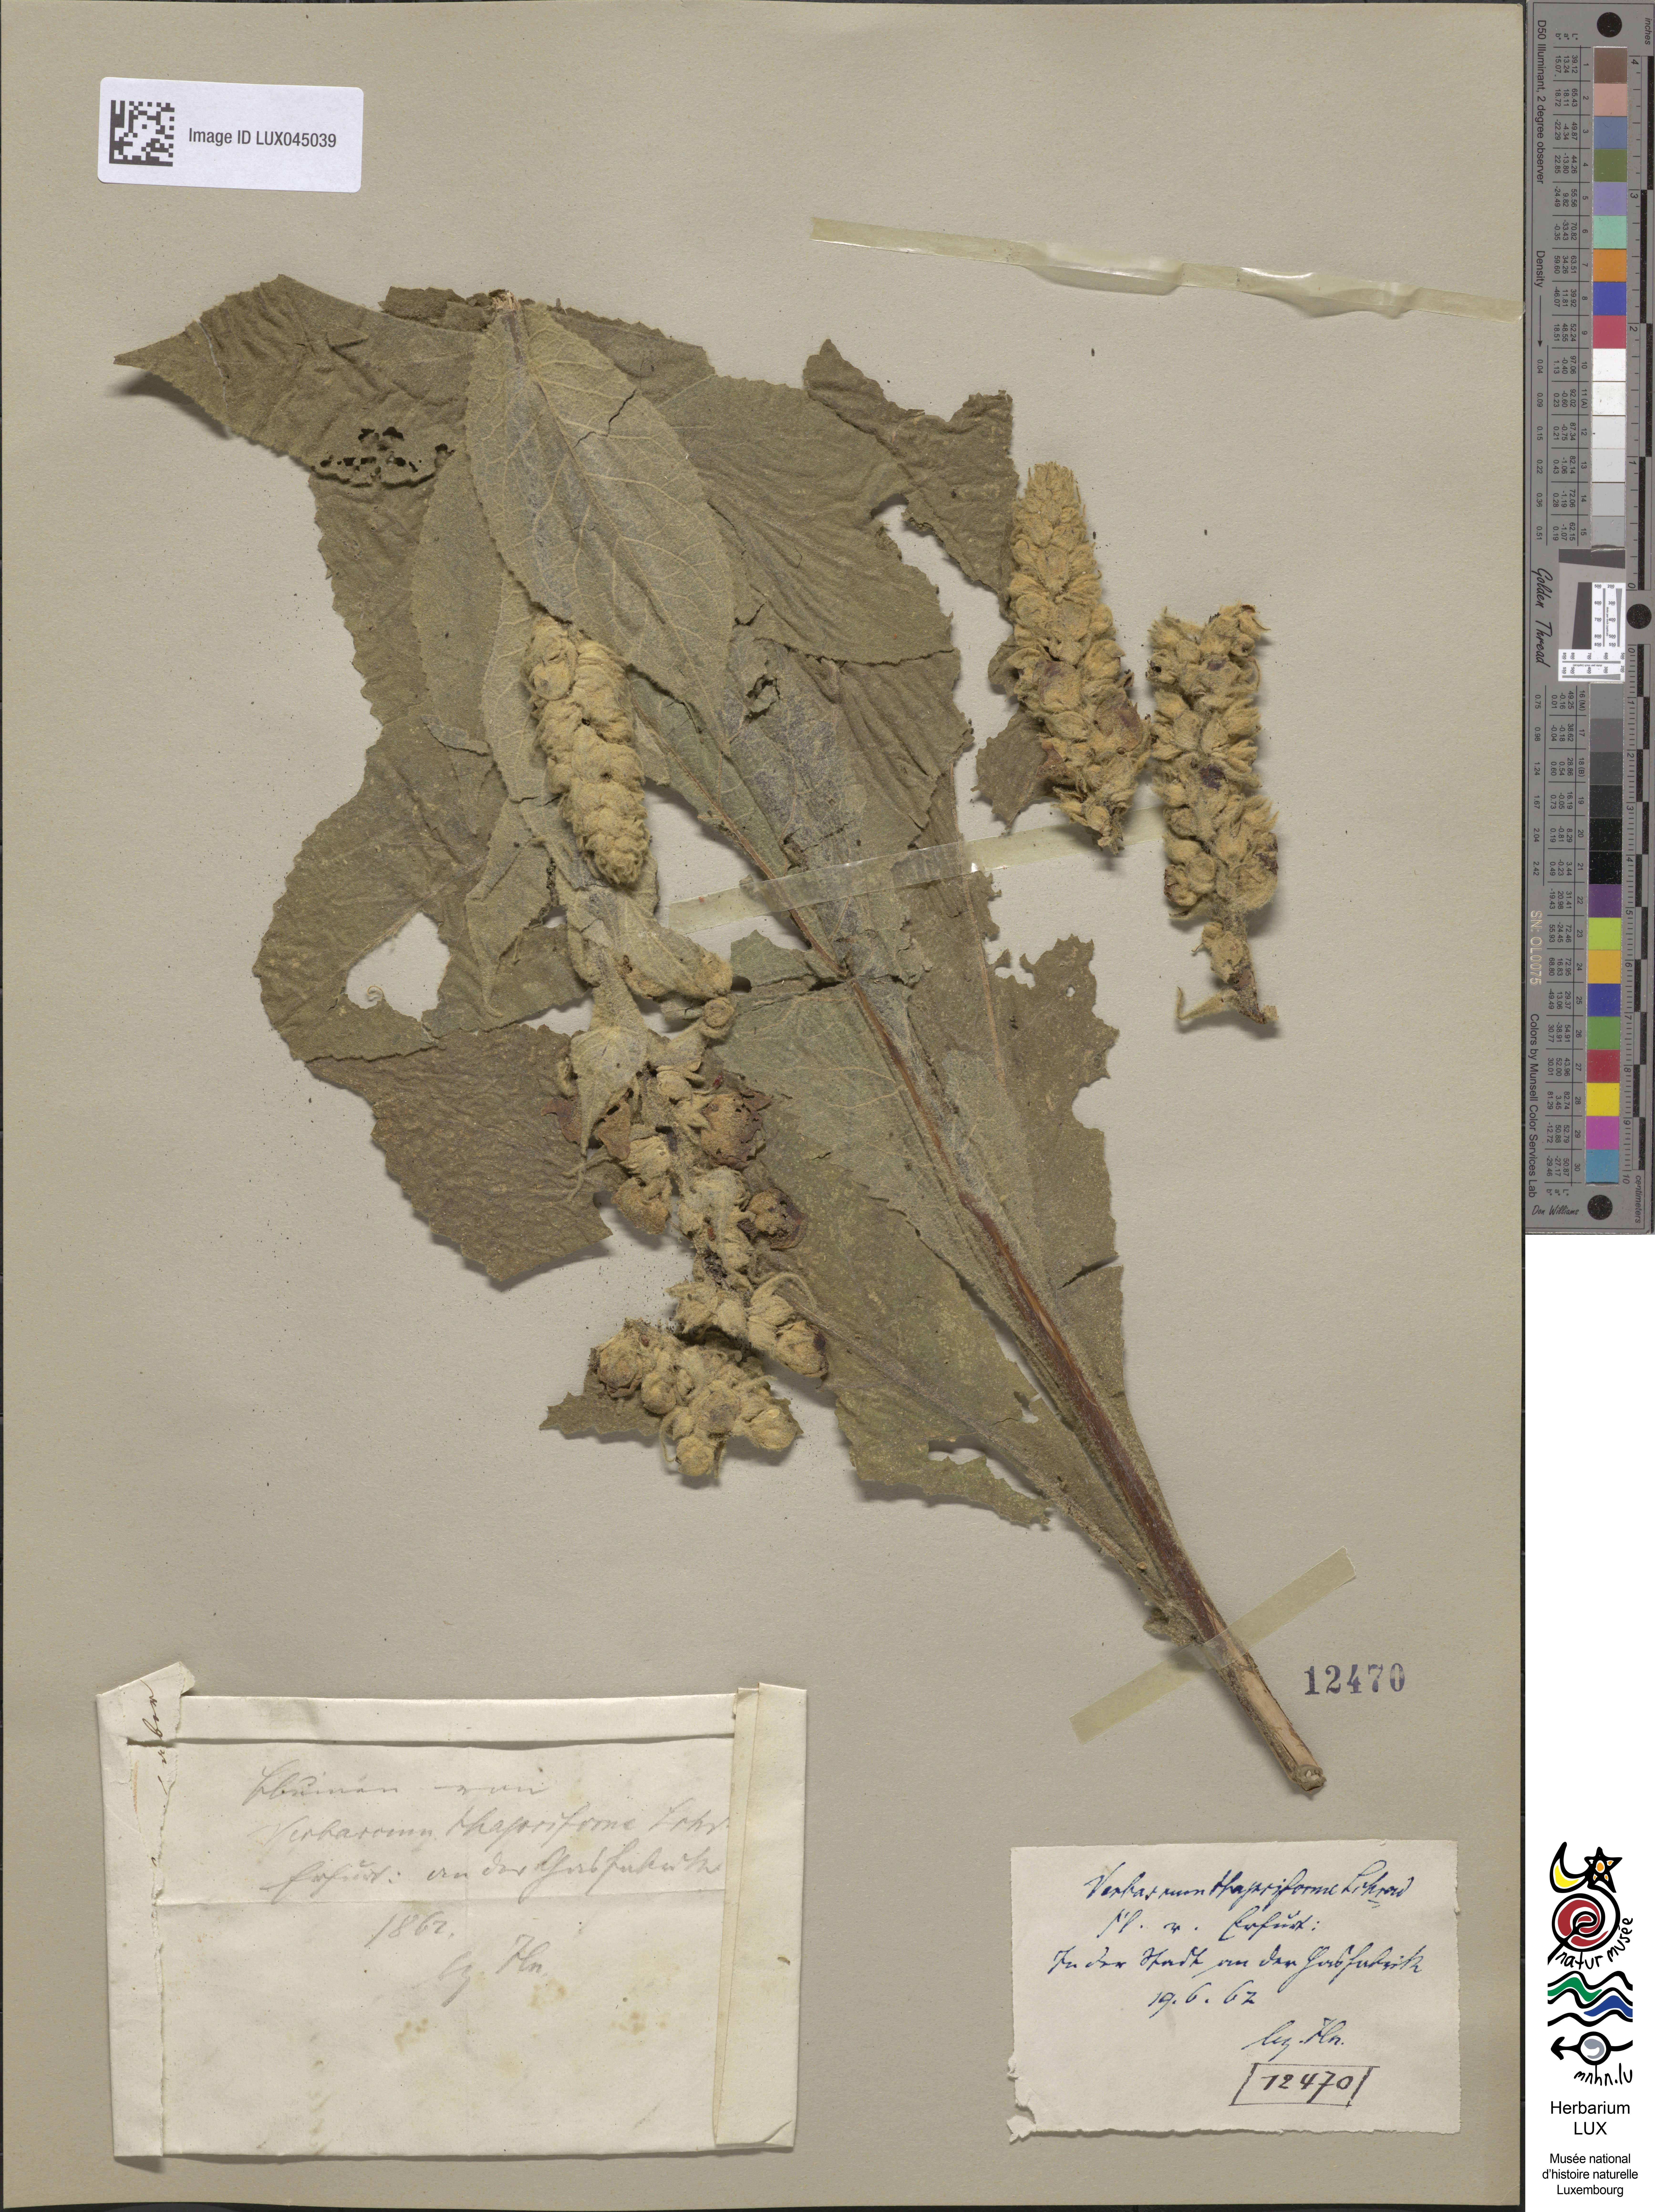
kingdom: Plantae
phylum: Tracheophyta
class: Magnoliopsida
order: Lamiales
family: Scrophulariaceae
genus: Verbascum
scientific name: Verbascum densiflorum
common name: Dense-flowered mullein
